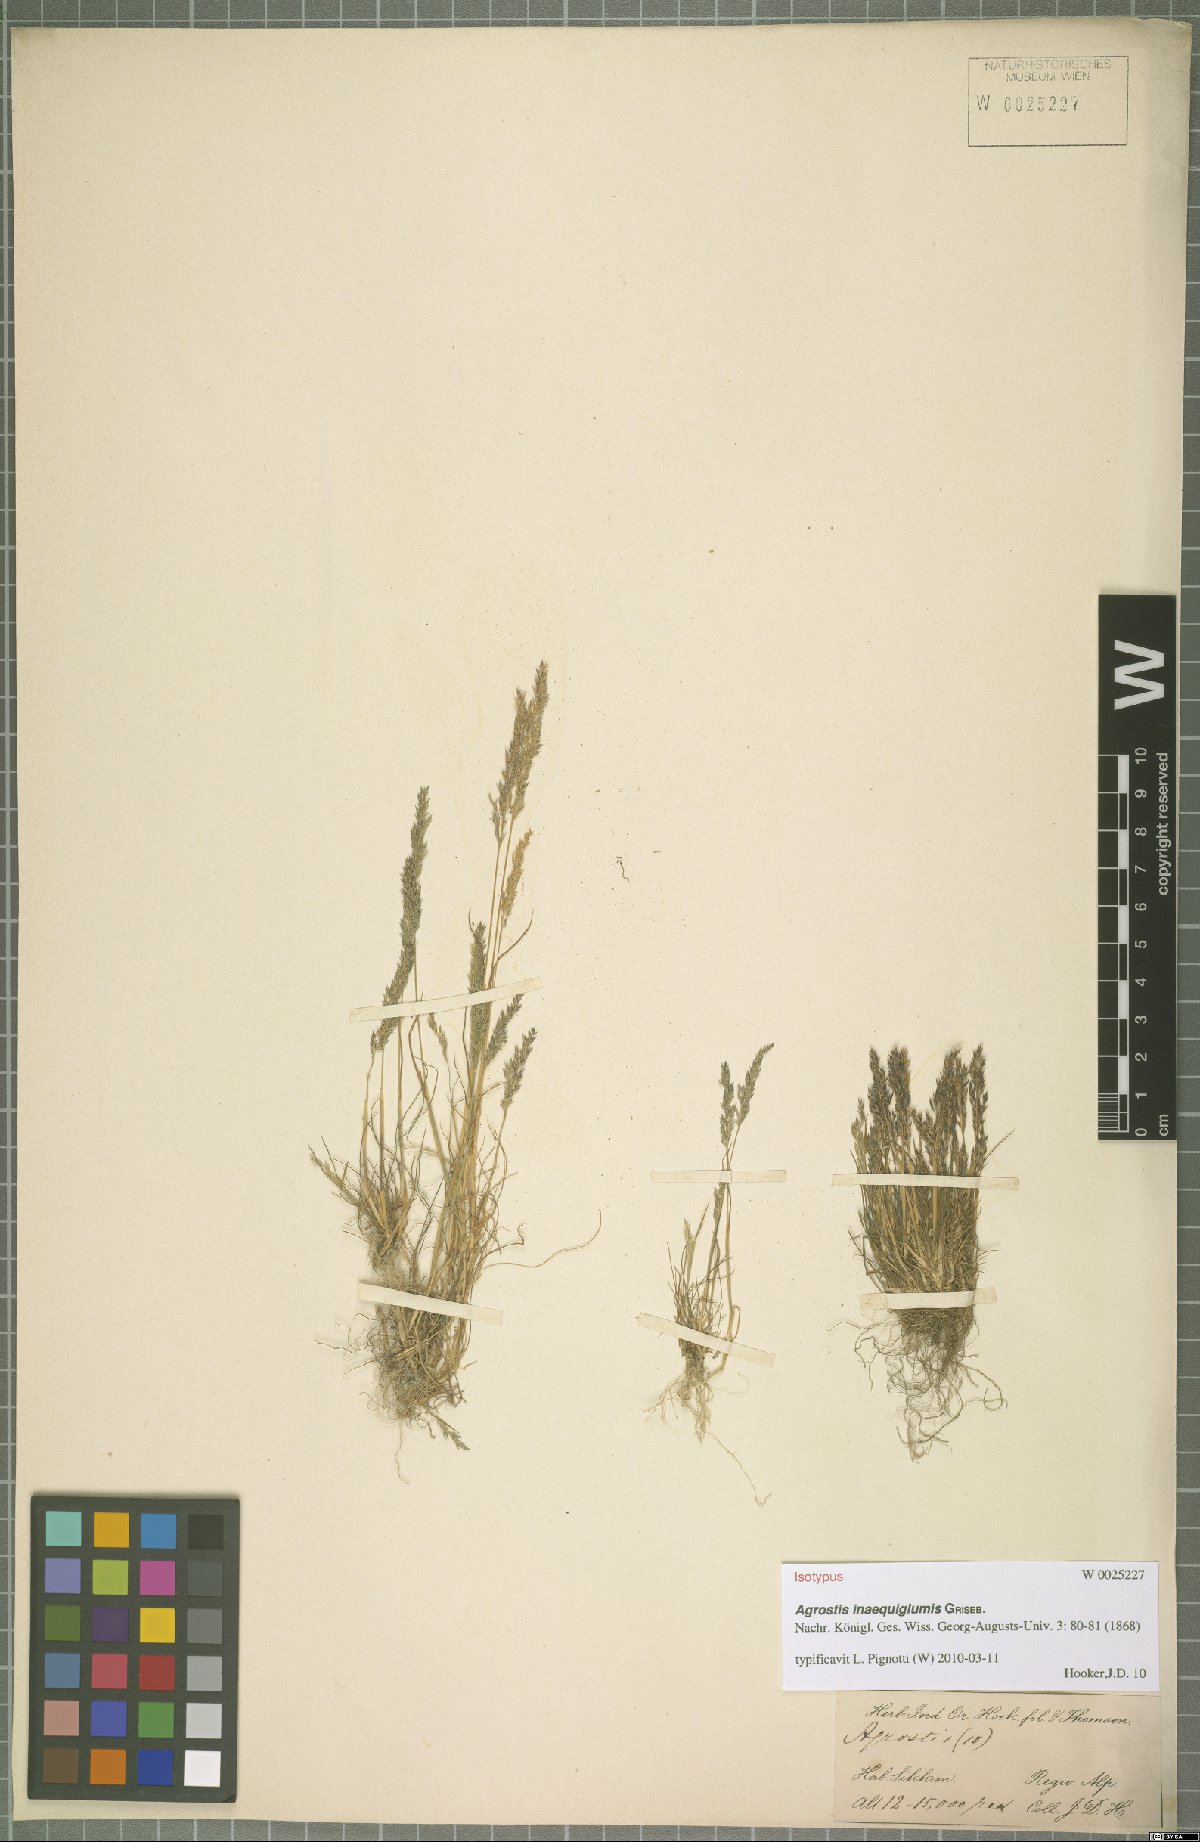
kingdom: Plantae
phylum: Tracheophyta
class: Liliopsida
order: Poales
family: Poaceae
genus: Agrostis
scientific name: Agrostis inaequiglumis
